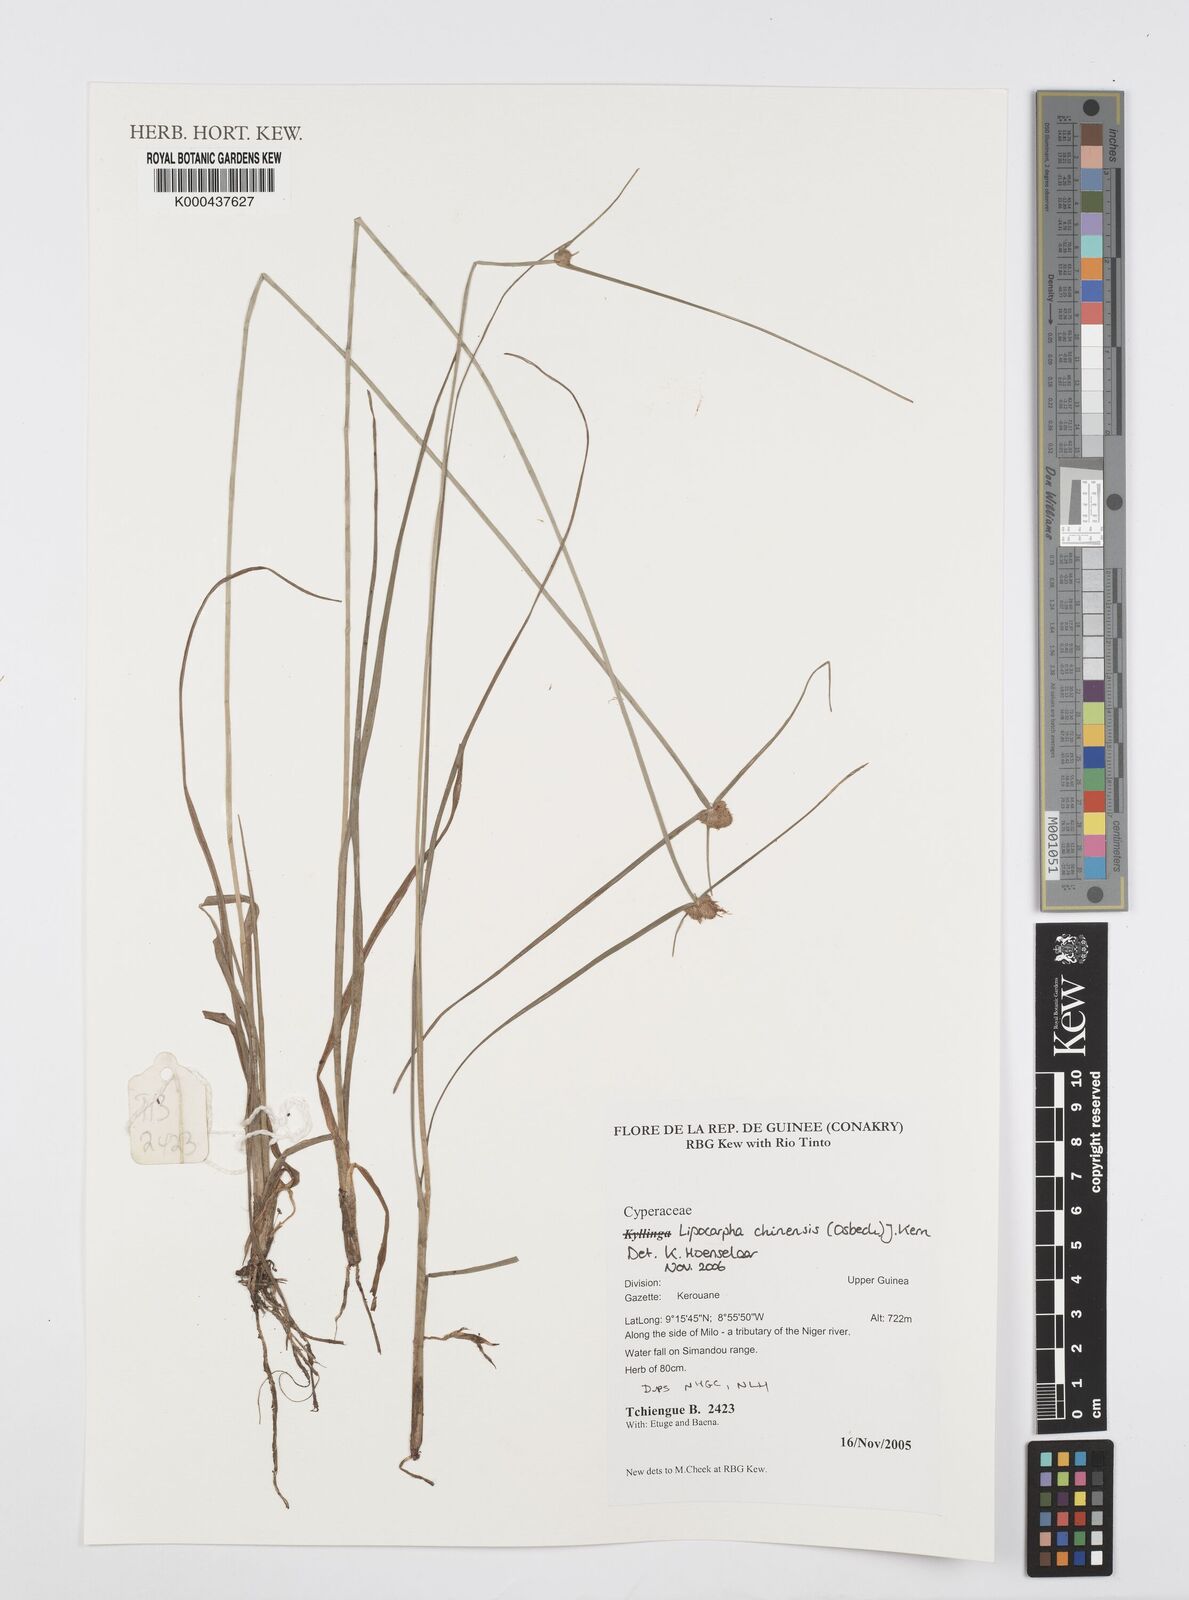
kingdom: Plantae
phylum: Tracheophyta
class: Liliopsida
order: Poales
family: Cyperaceae
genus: Cyperus
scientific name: Cyperus albescens
